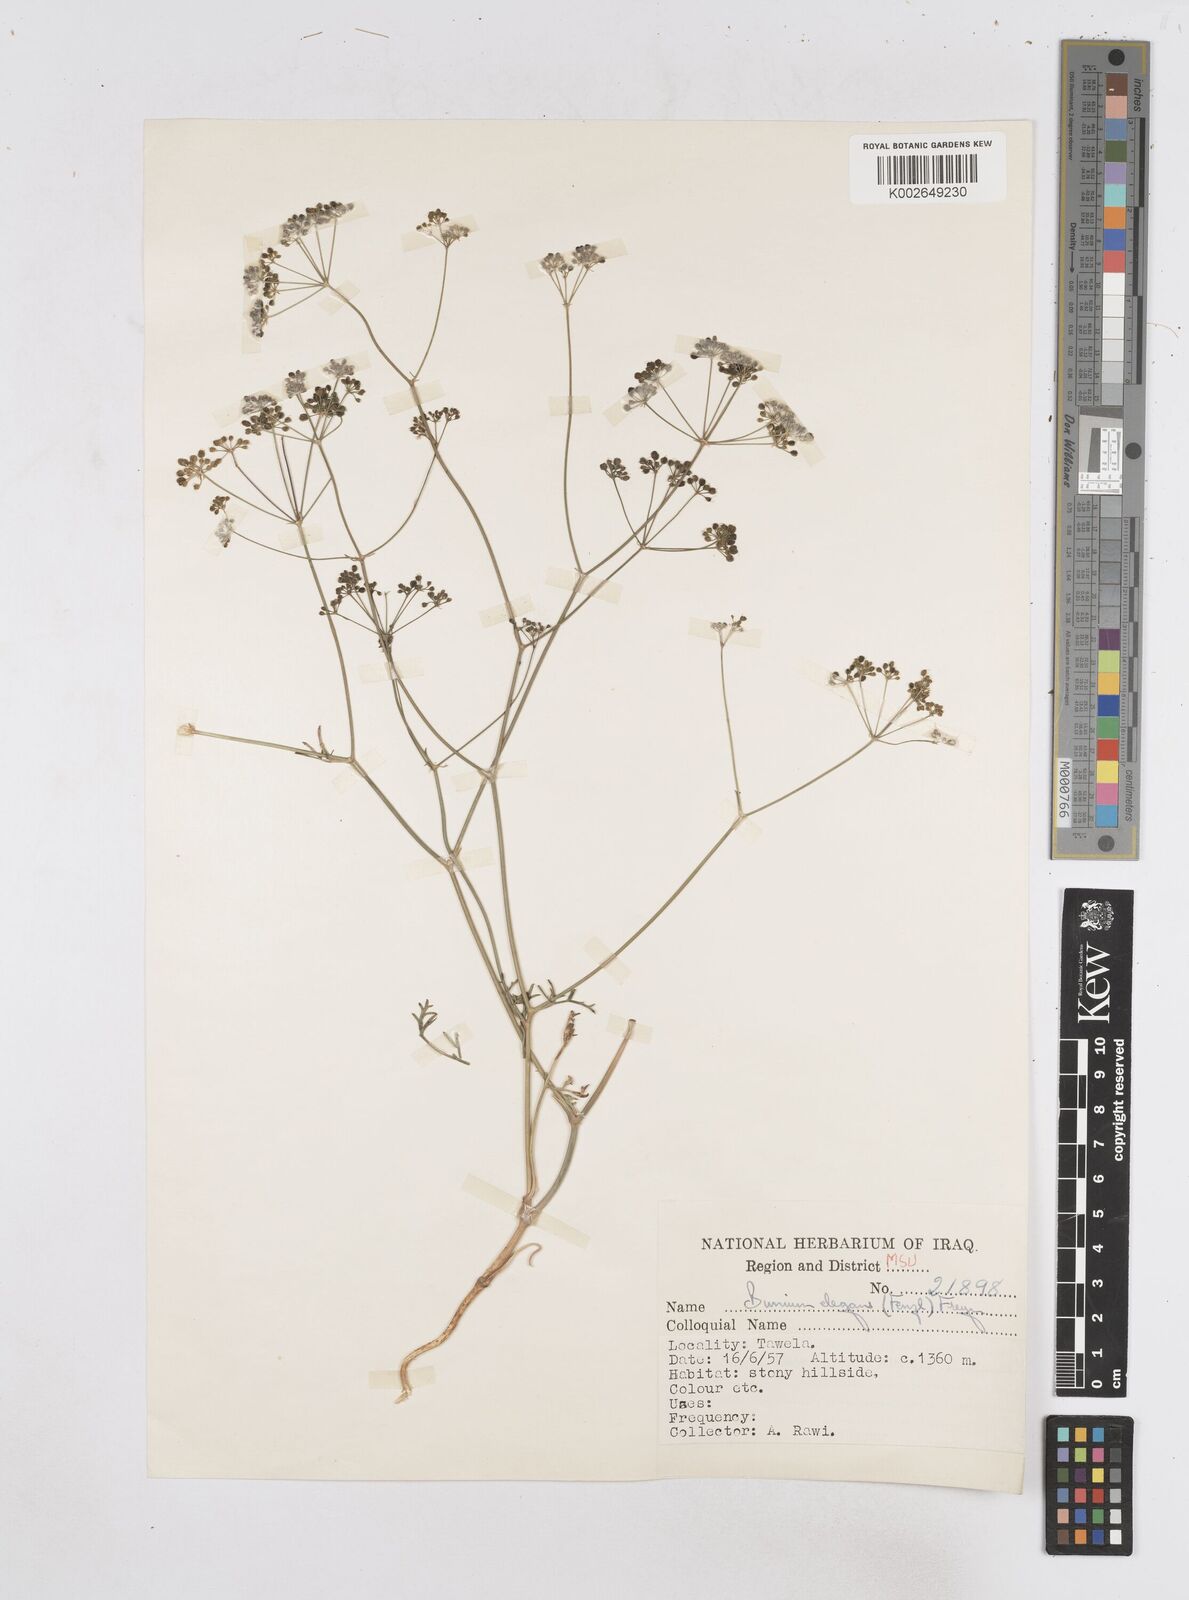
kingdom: Plantae
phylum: Tracheophyta
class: Magnoliopsida
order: Apiales
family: Apiaceae
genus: Bunium
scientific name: Bunium paucifolium
